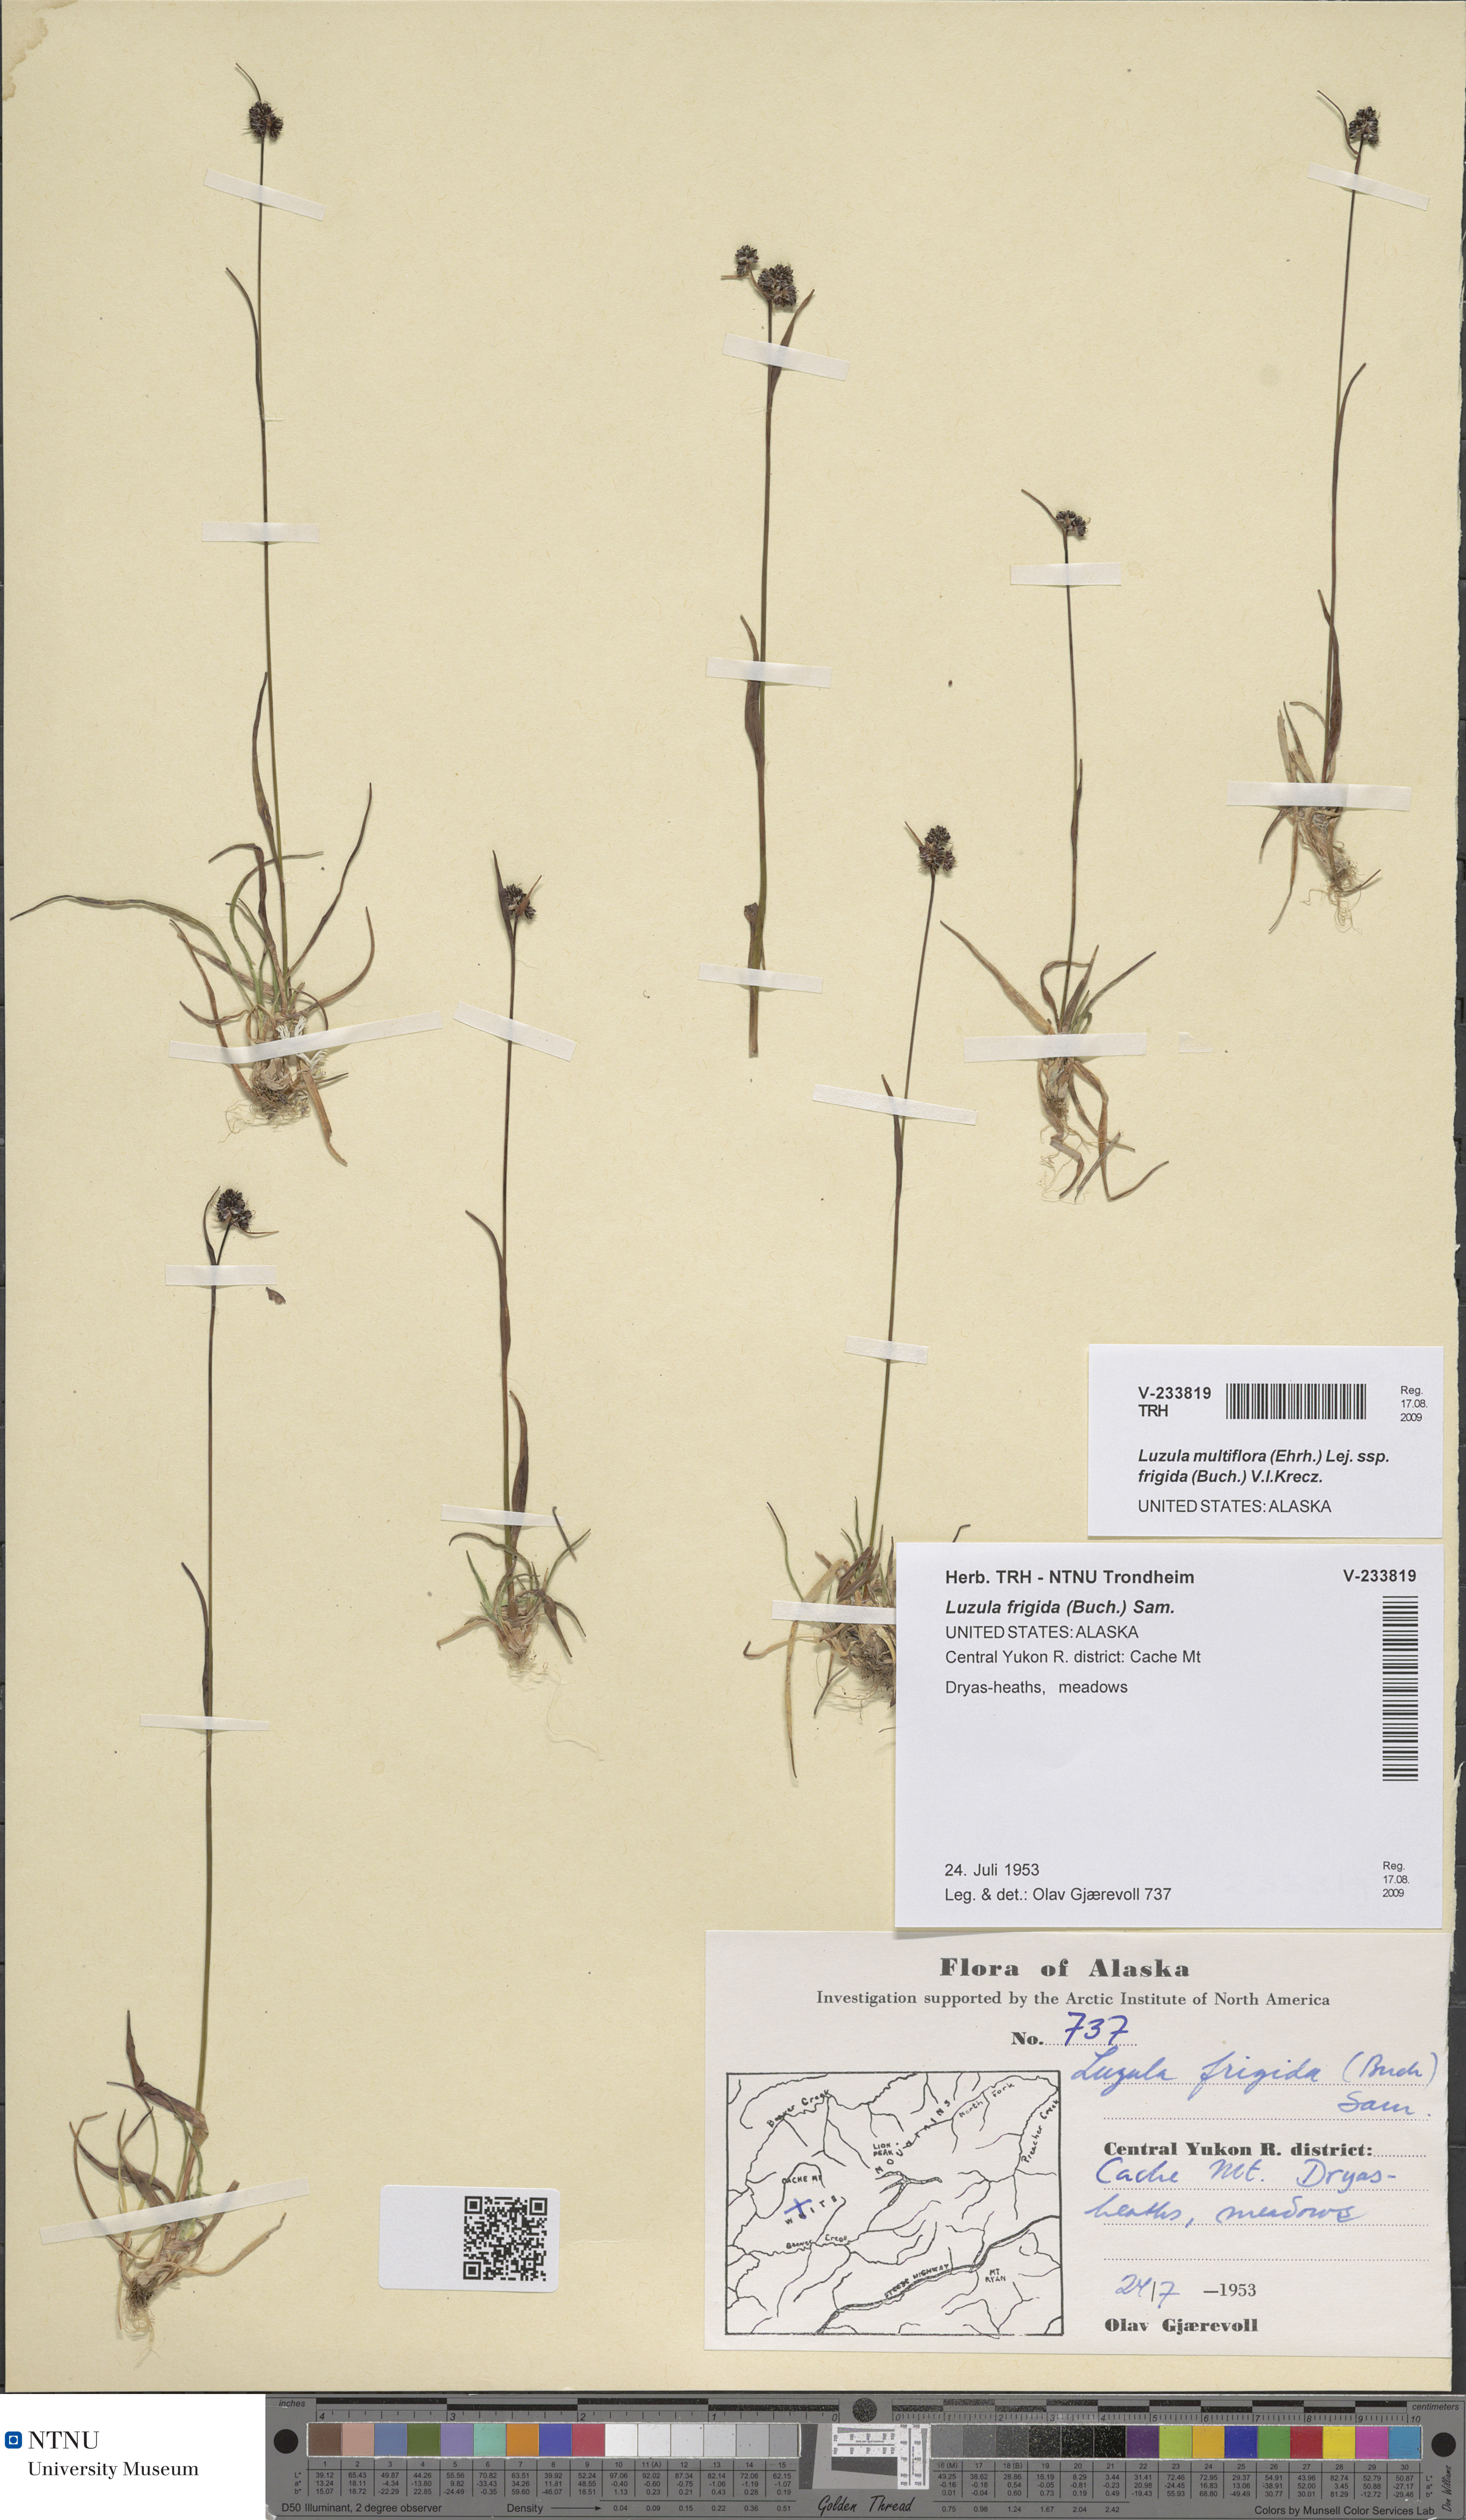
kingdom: Plantae
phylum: Tracheophyta
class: Liliopsida
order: Poales
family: Juncaceae
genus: Luzula
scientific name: Luzula multiflora
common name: Heath wood-rush
